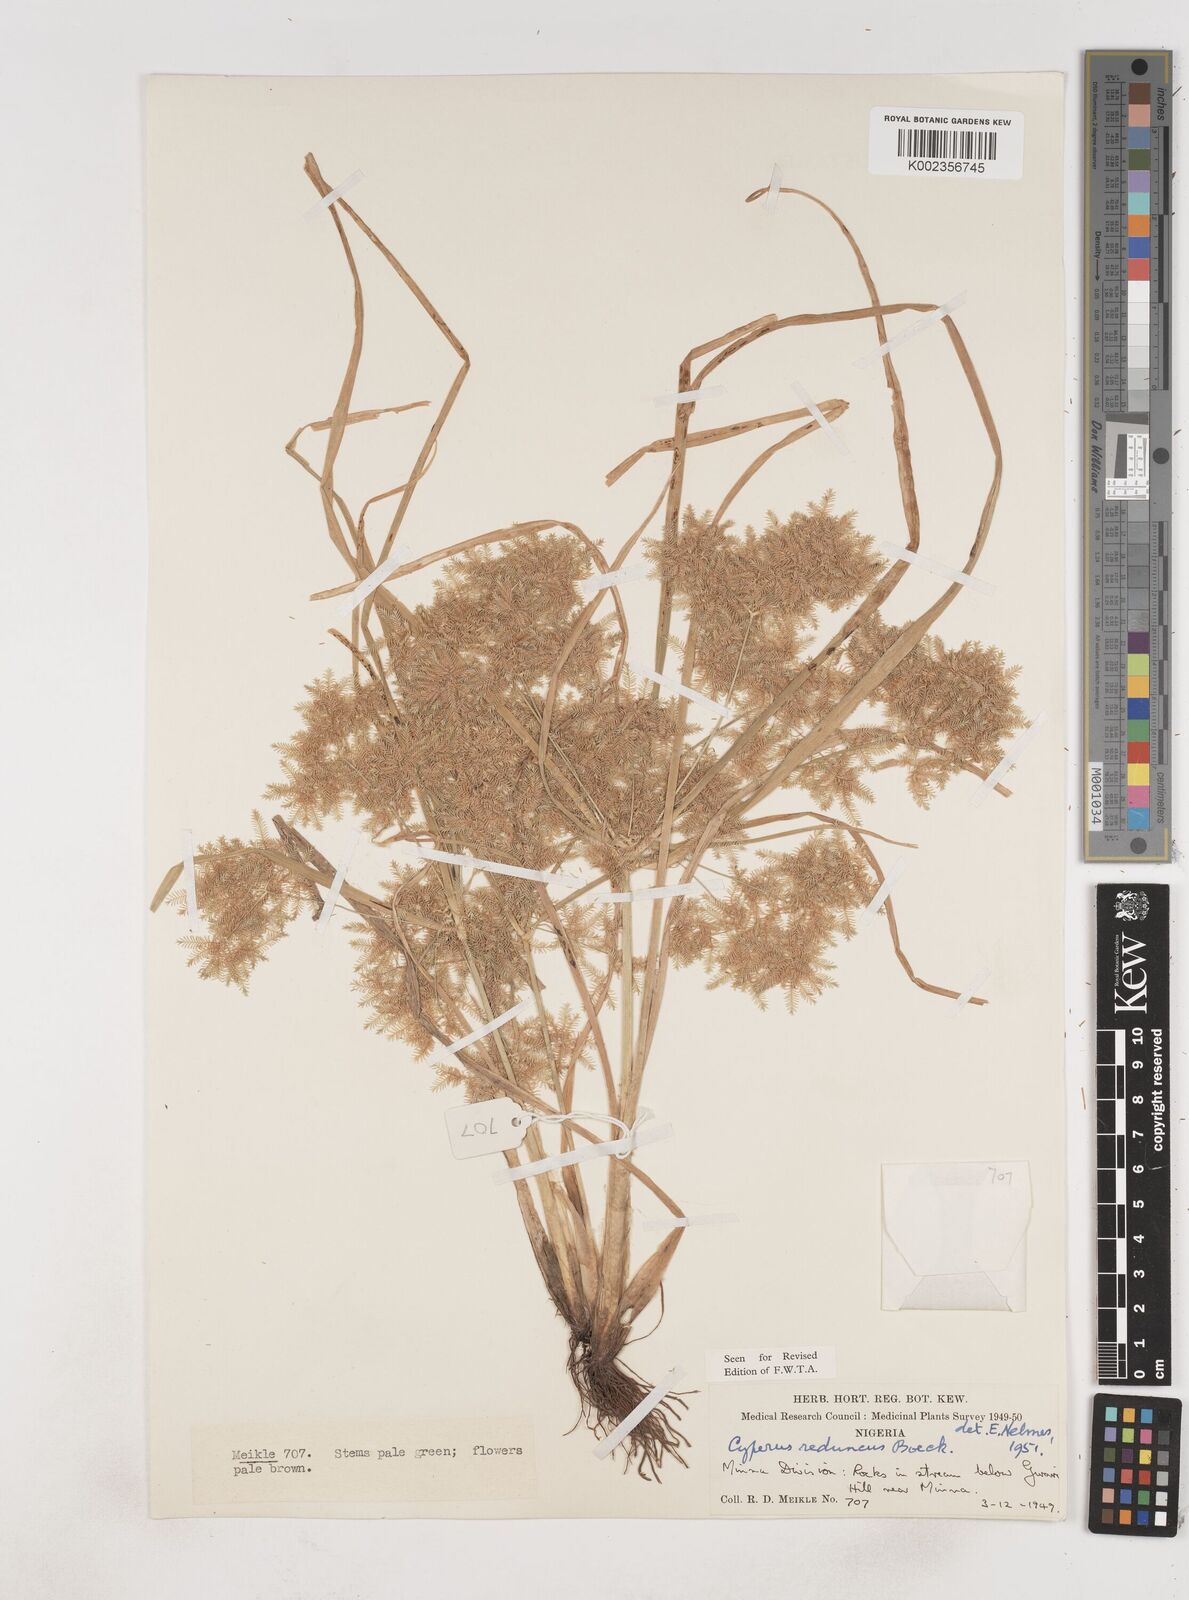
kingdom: Plantae
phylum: Tracheophyta
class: Liliopsida
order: Poales
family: Cyperaceae
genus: Cyperus
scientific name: Cyperus reduncus
